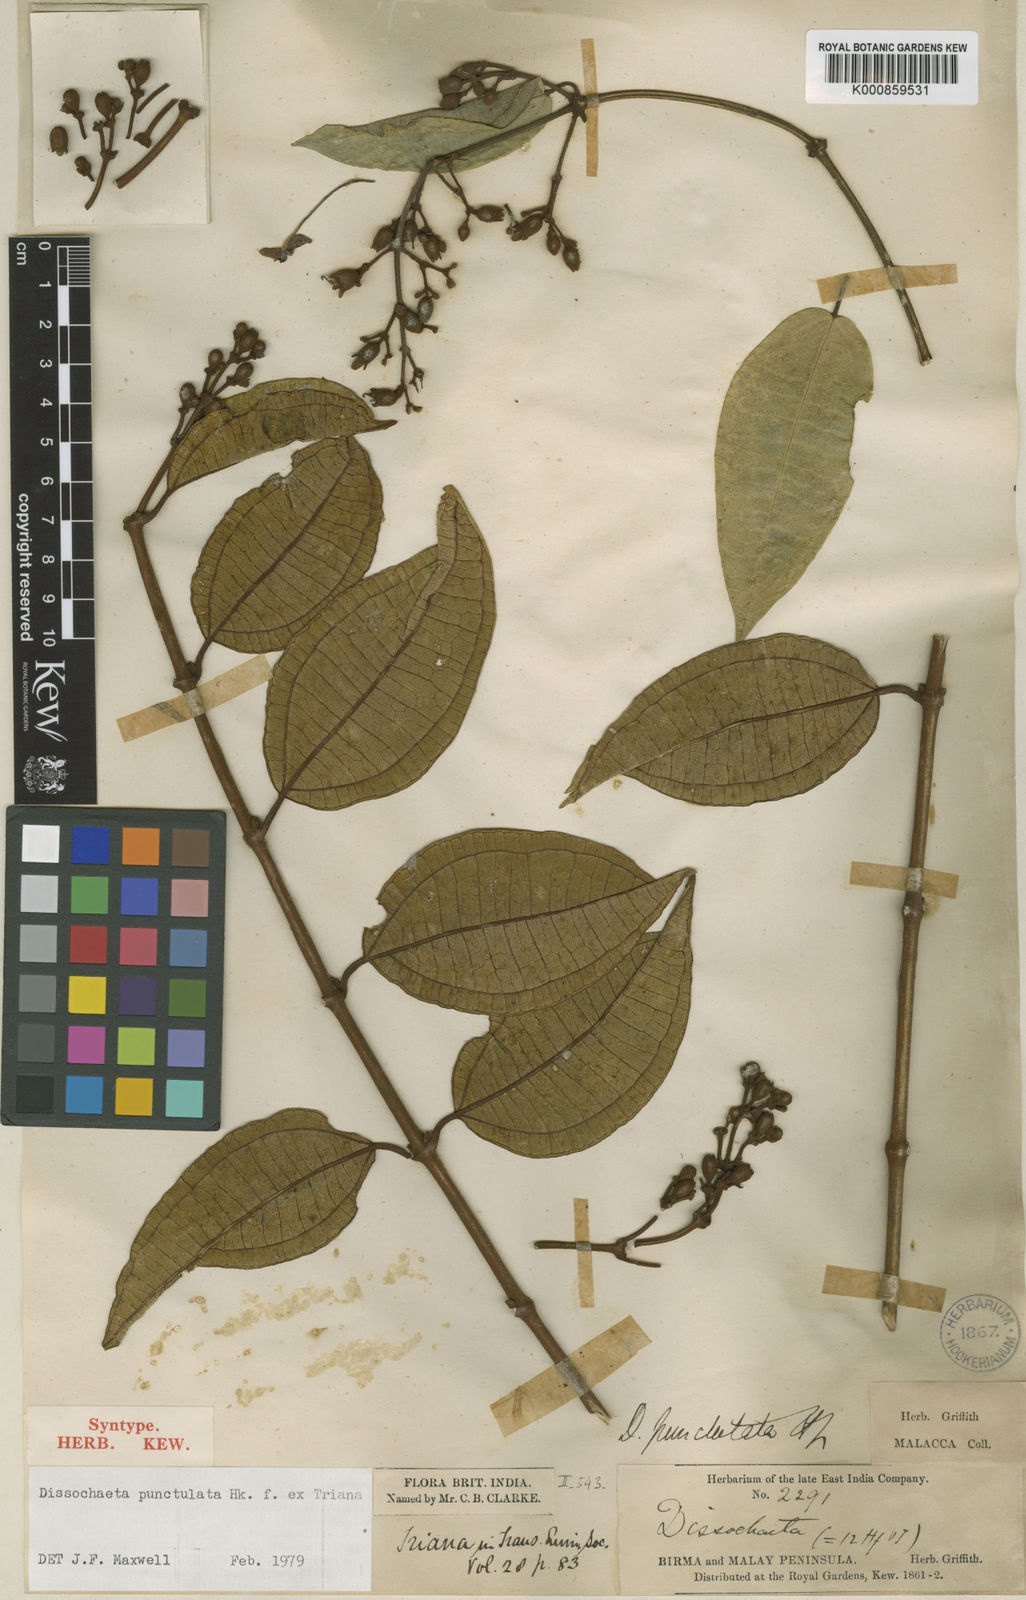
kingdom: Plantae
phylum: Tracheophyta
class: Magnoliopsida
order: Myrtales
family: Melastomataceae
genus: Dissochaeta
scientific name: Dissochaeta punctulata
